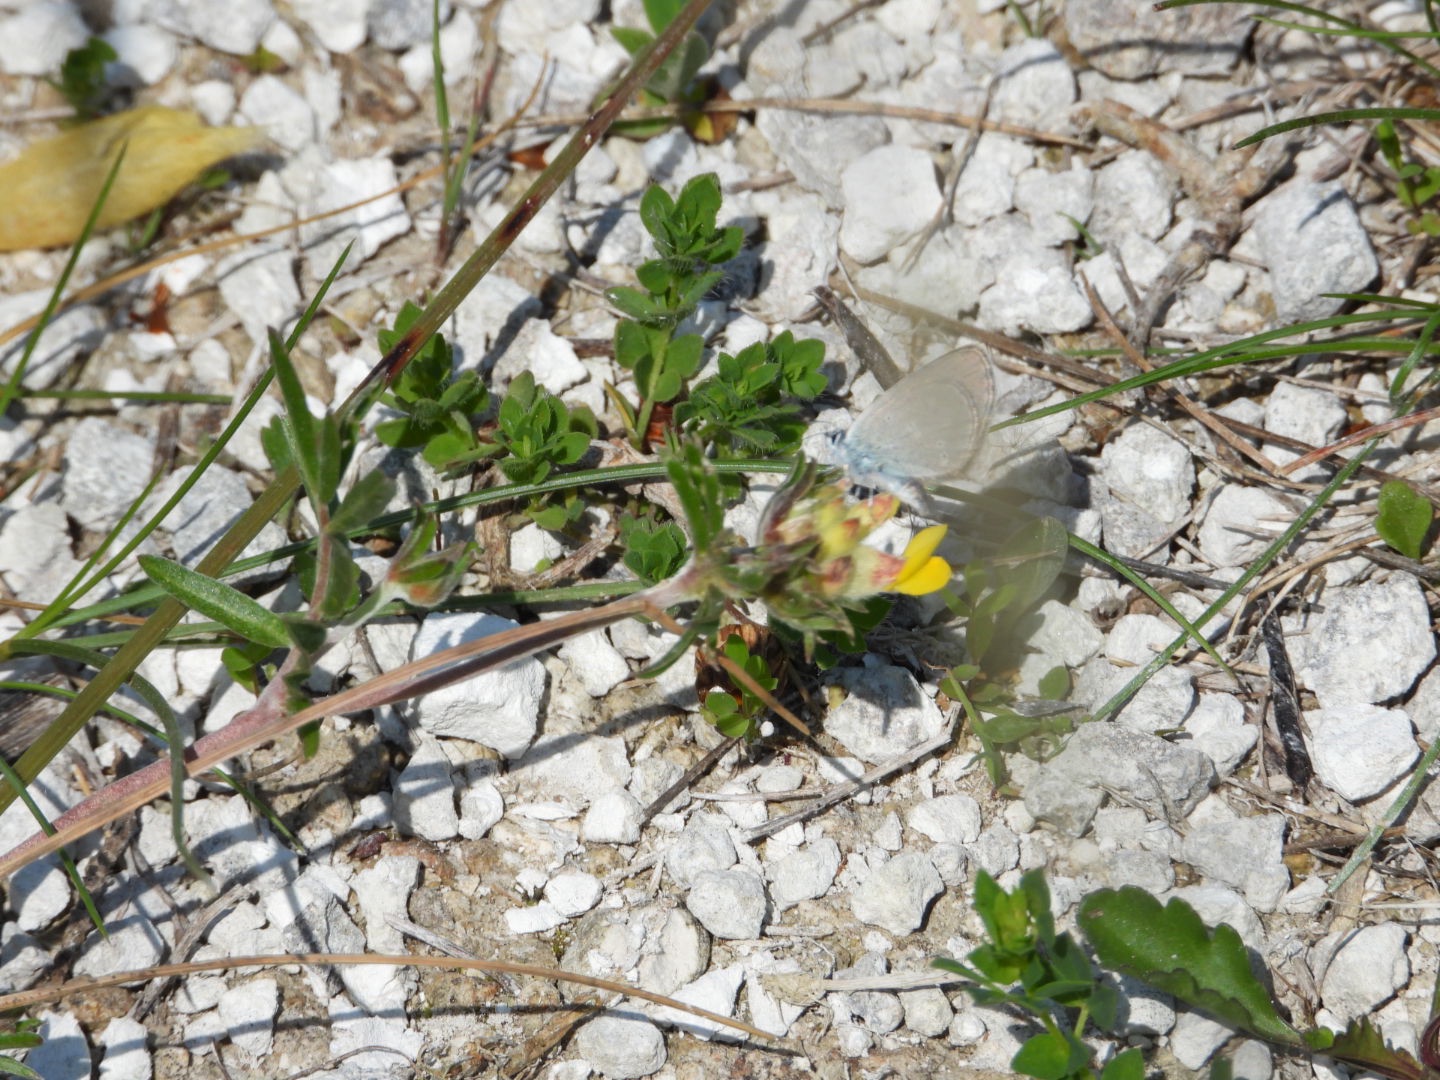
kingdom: Animalia
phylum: Arthropoda
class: Insecta
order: Lepidoptera
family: Lycaenidae
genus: Cupido
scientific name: Cupido minimus
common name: Dværgblåfugl
